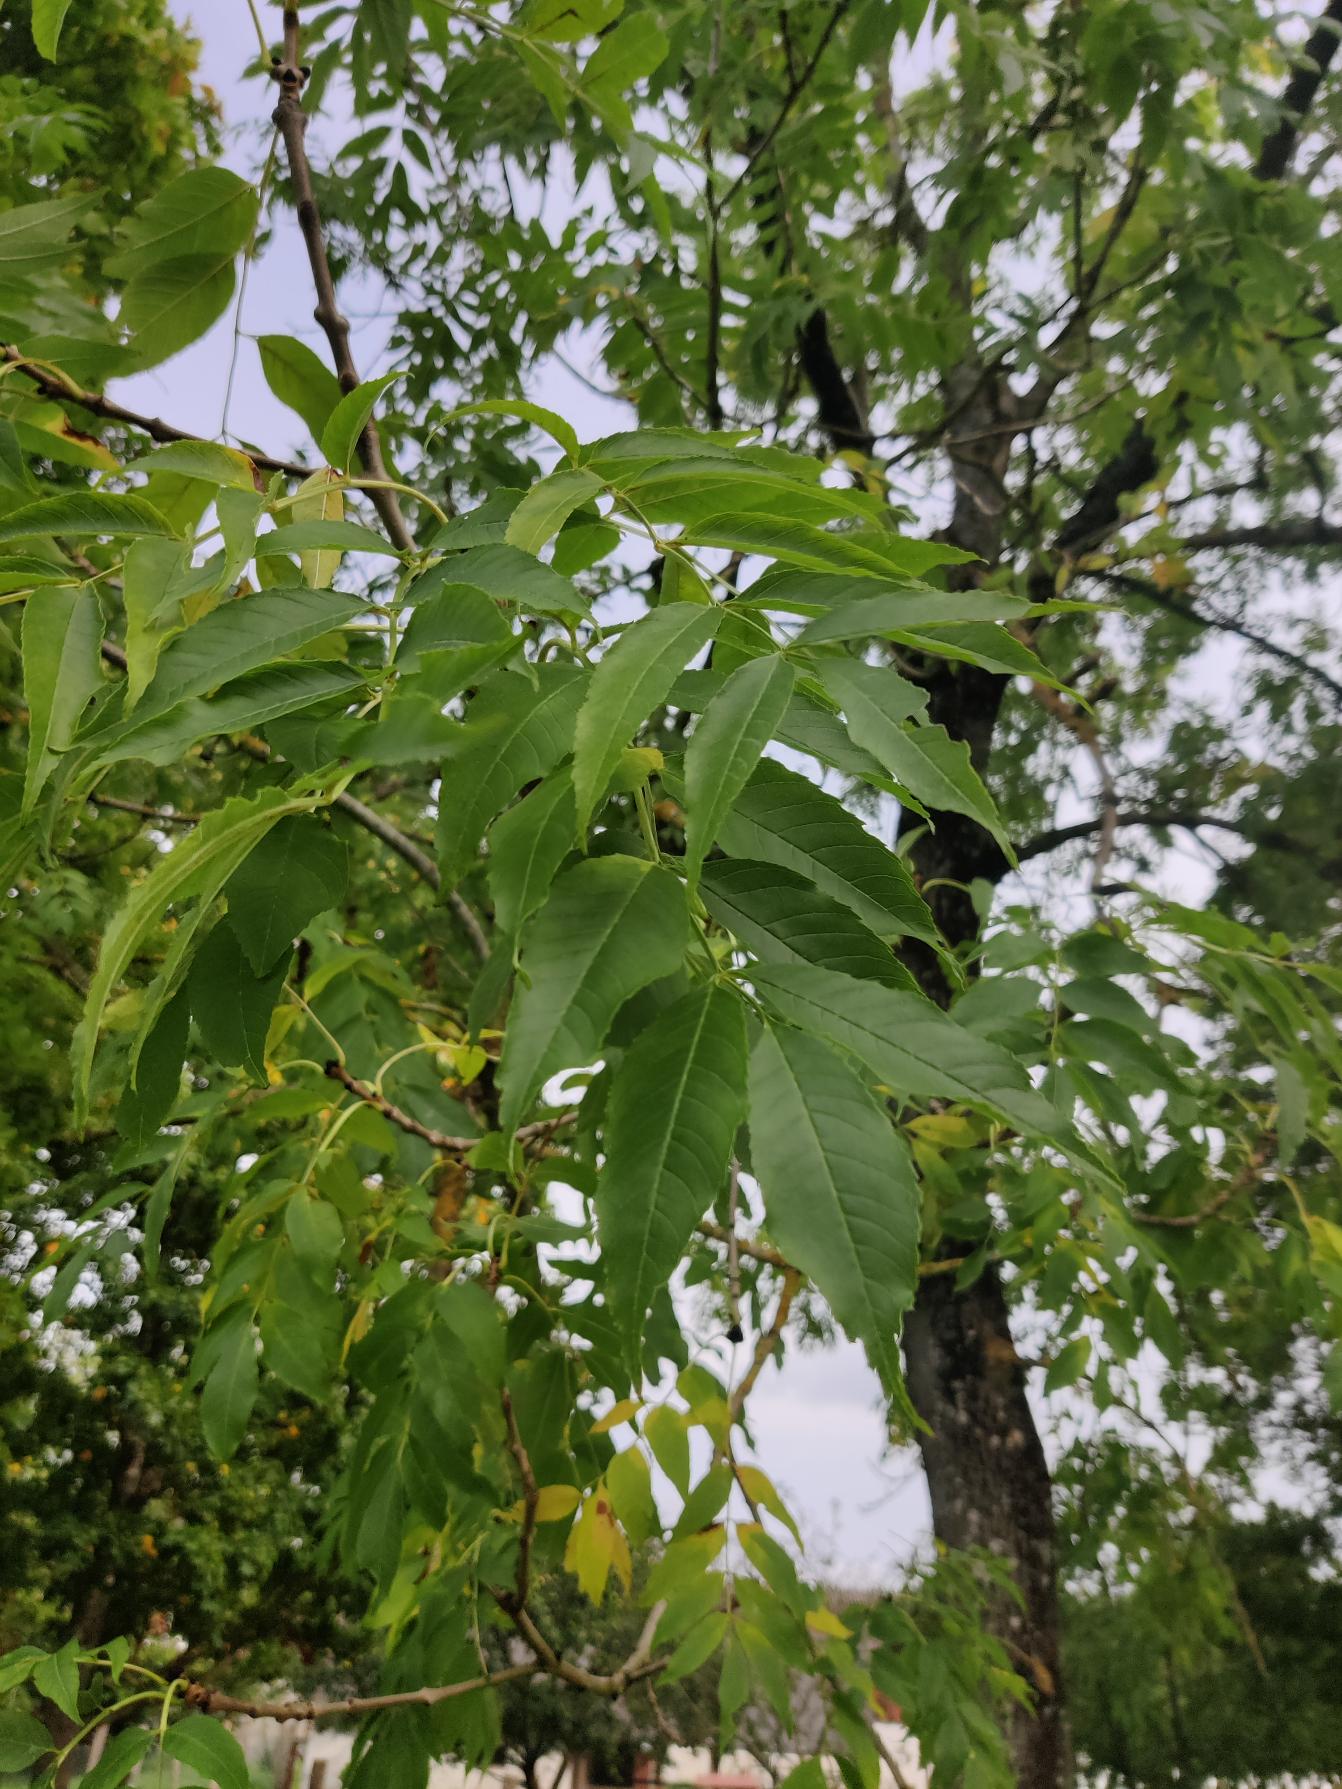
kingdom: Plantae
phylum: Tracheophyta
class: Magnoliopsida
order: Lamiales
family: Oleaceae
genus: Fraxinus
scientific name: Fraxinus excelsior
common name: Ask
